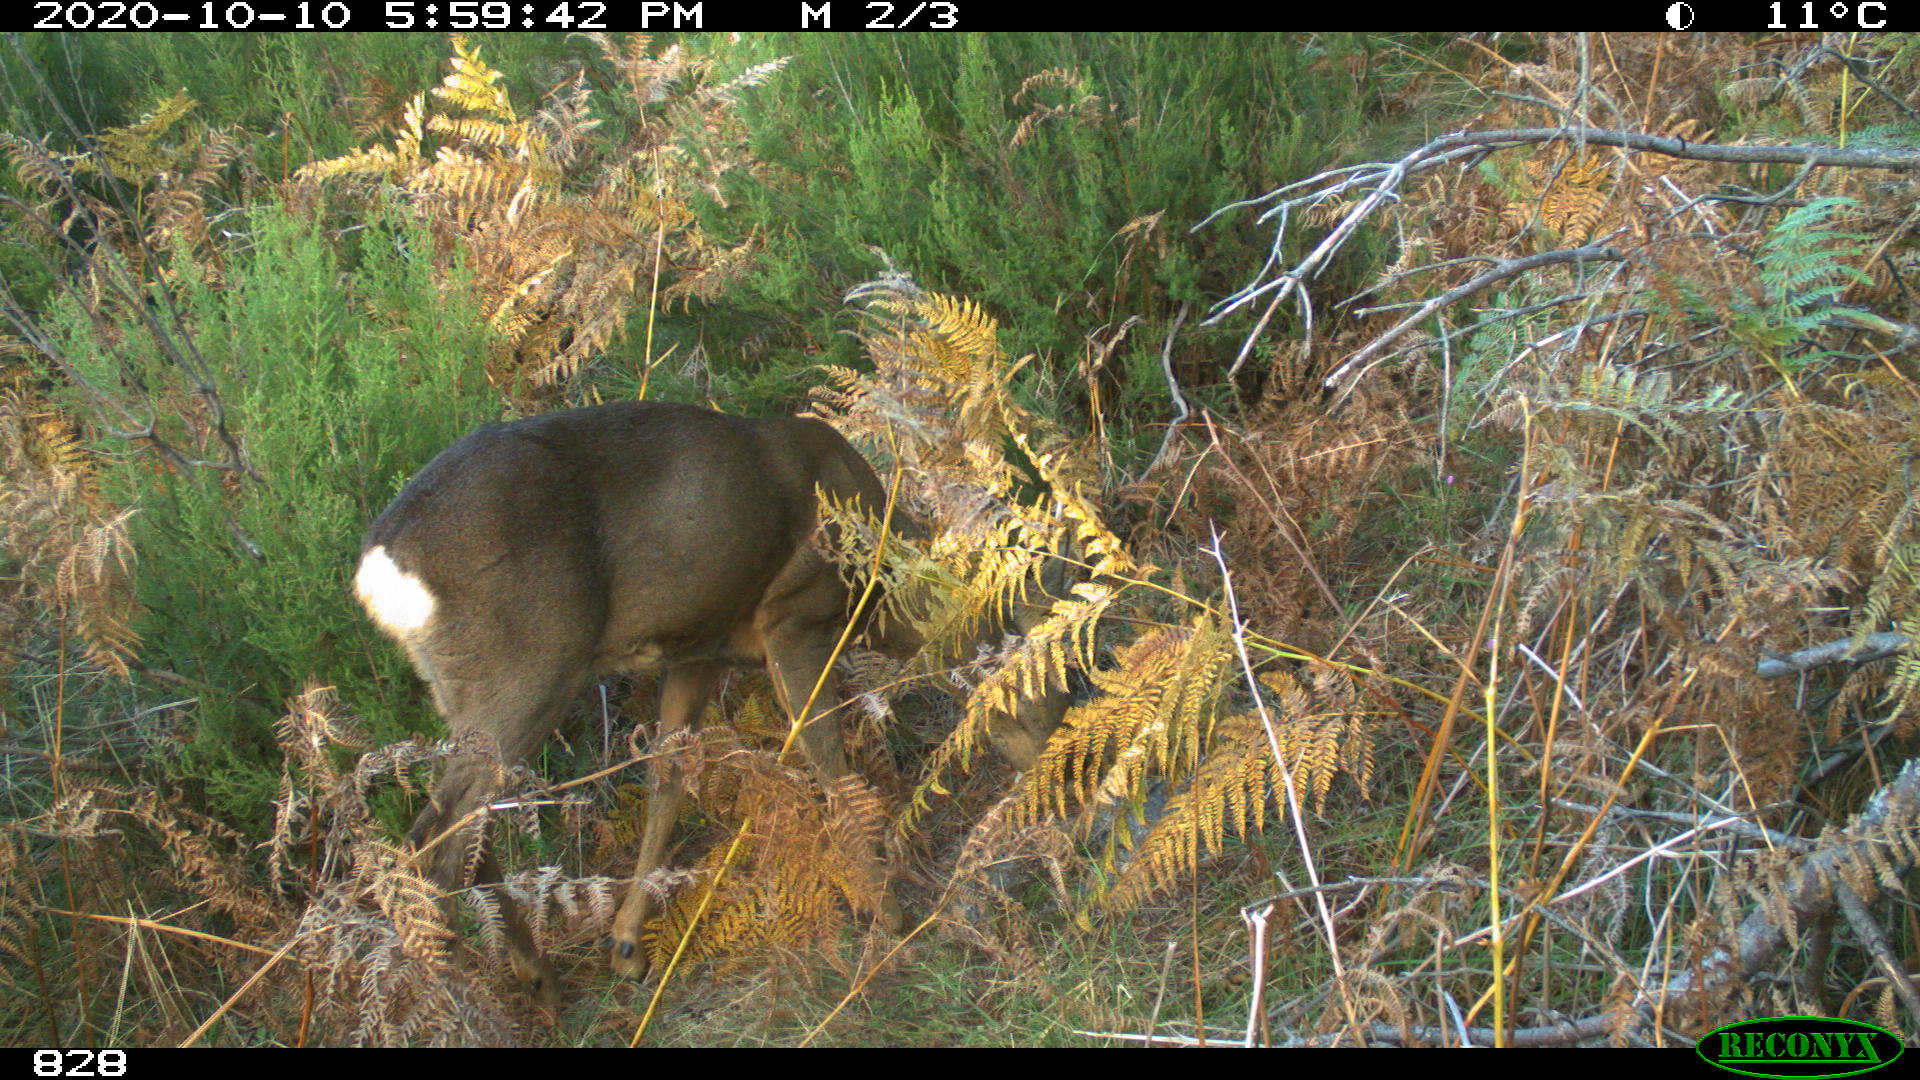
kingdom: Animalia
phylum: Chordata
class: Mammalia
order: Artiodactyla
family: Cervidae
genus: Capreolus
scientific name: Capreolus capreolus
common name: Western roe deer
